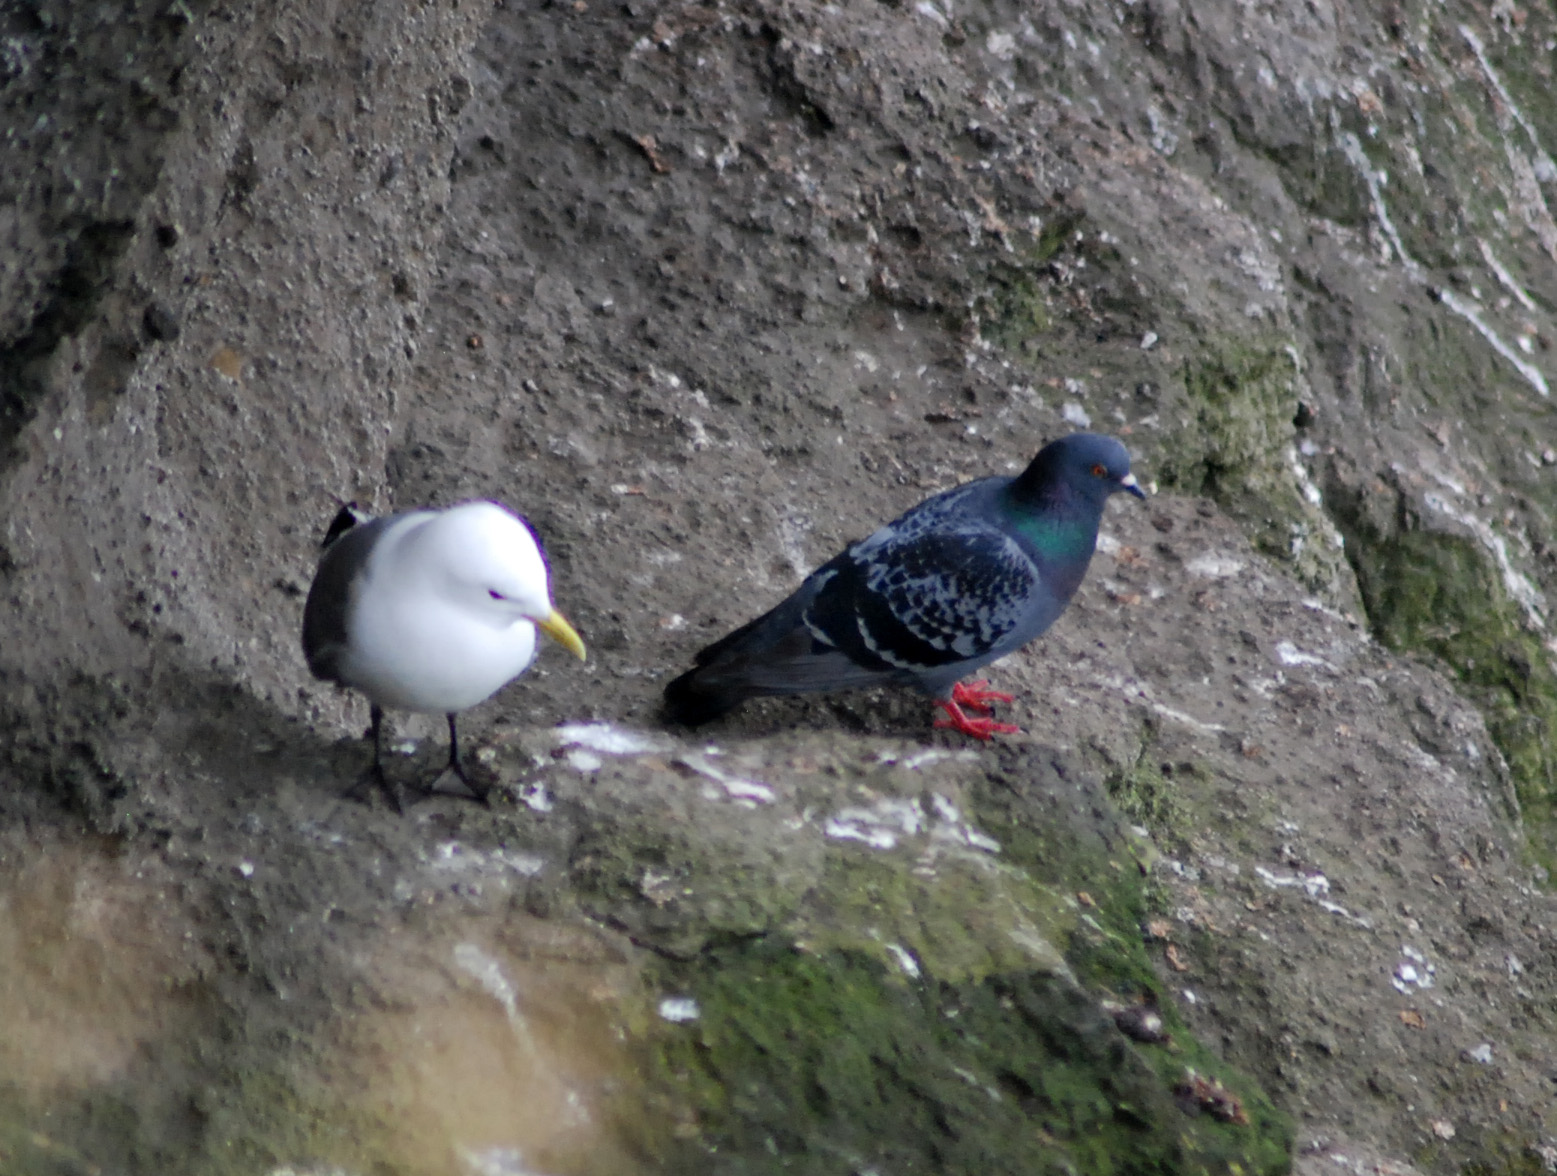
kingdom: Animalia
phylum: Chordata
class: Aves
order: Columbiformes
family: Columbidae
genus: Columba
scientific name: Columba livia
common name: Rock pigeon
